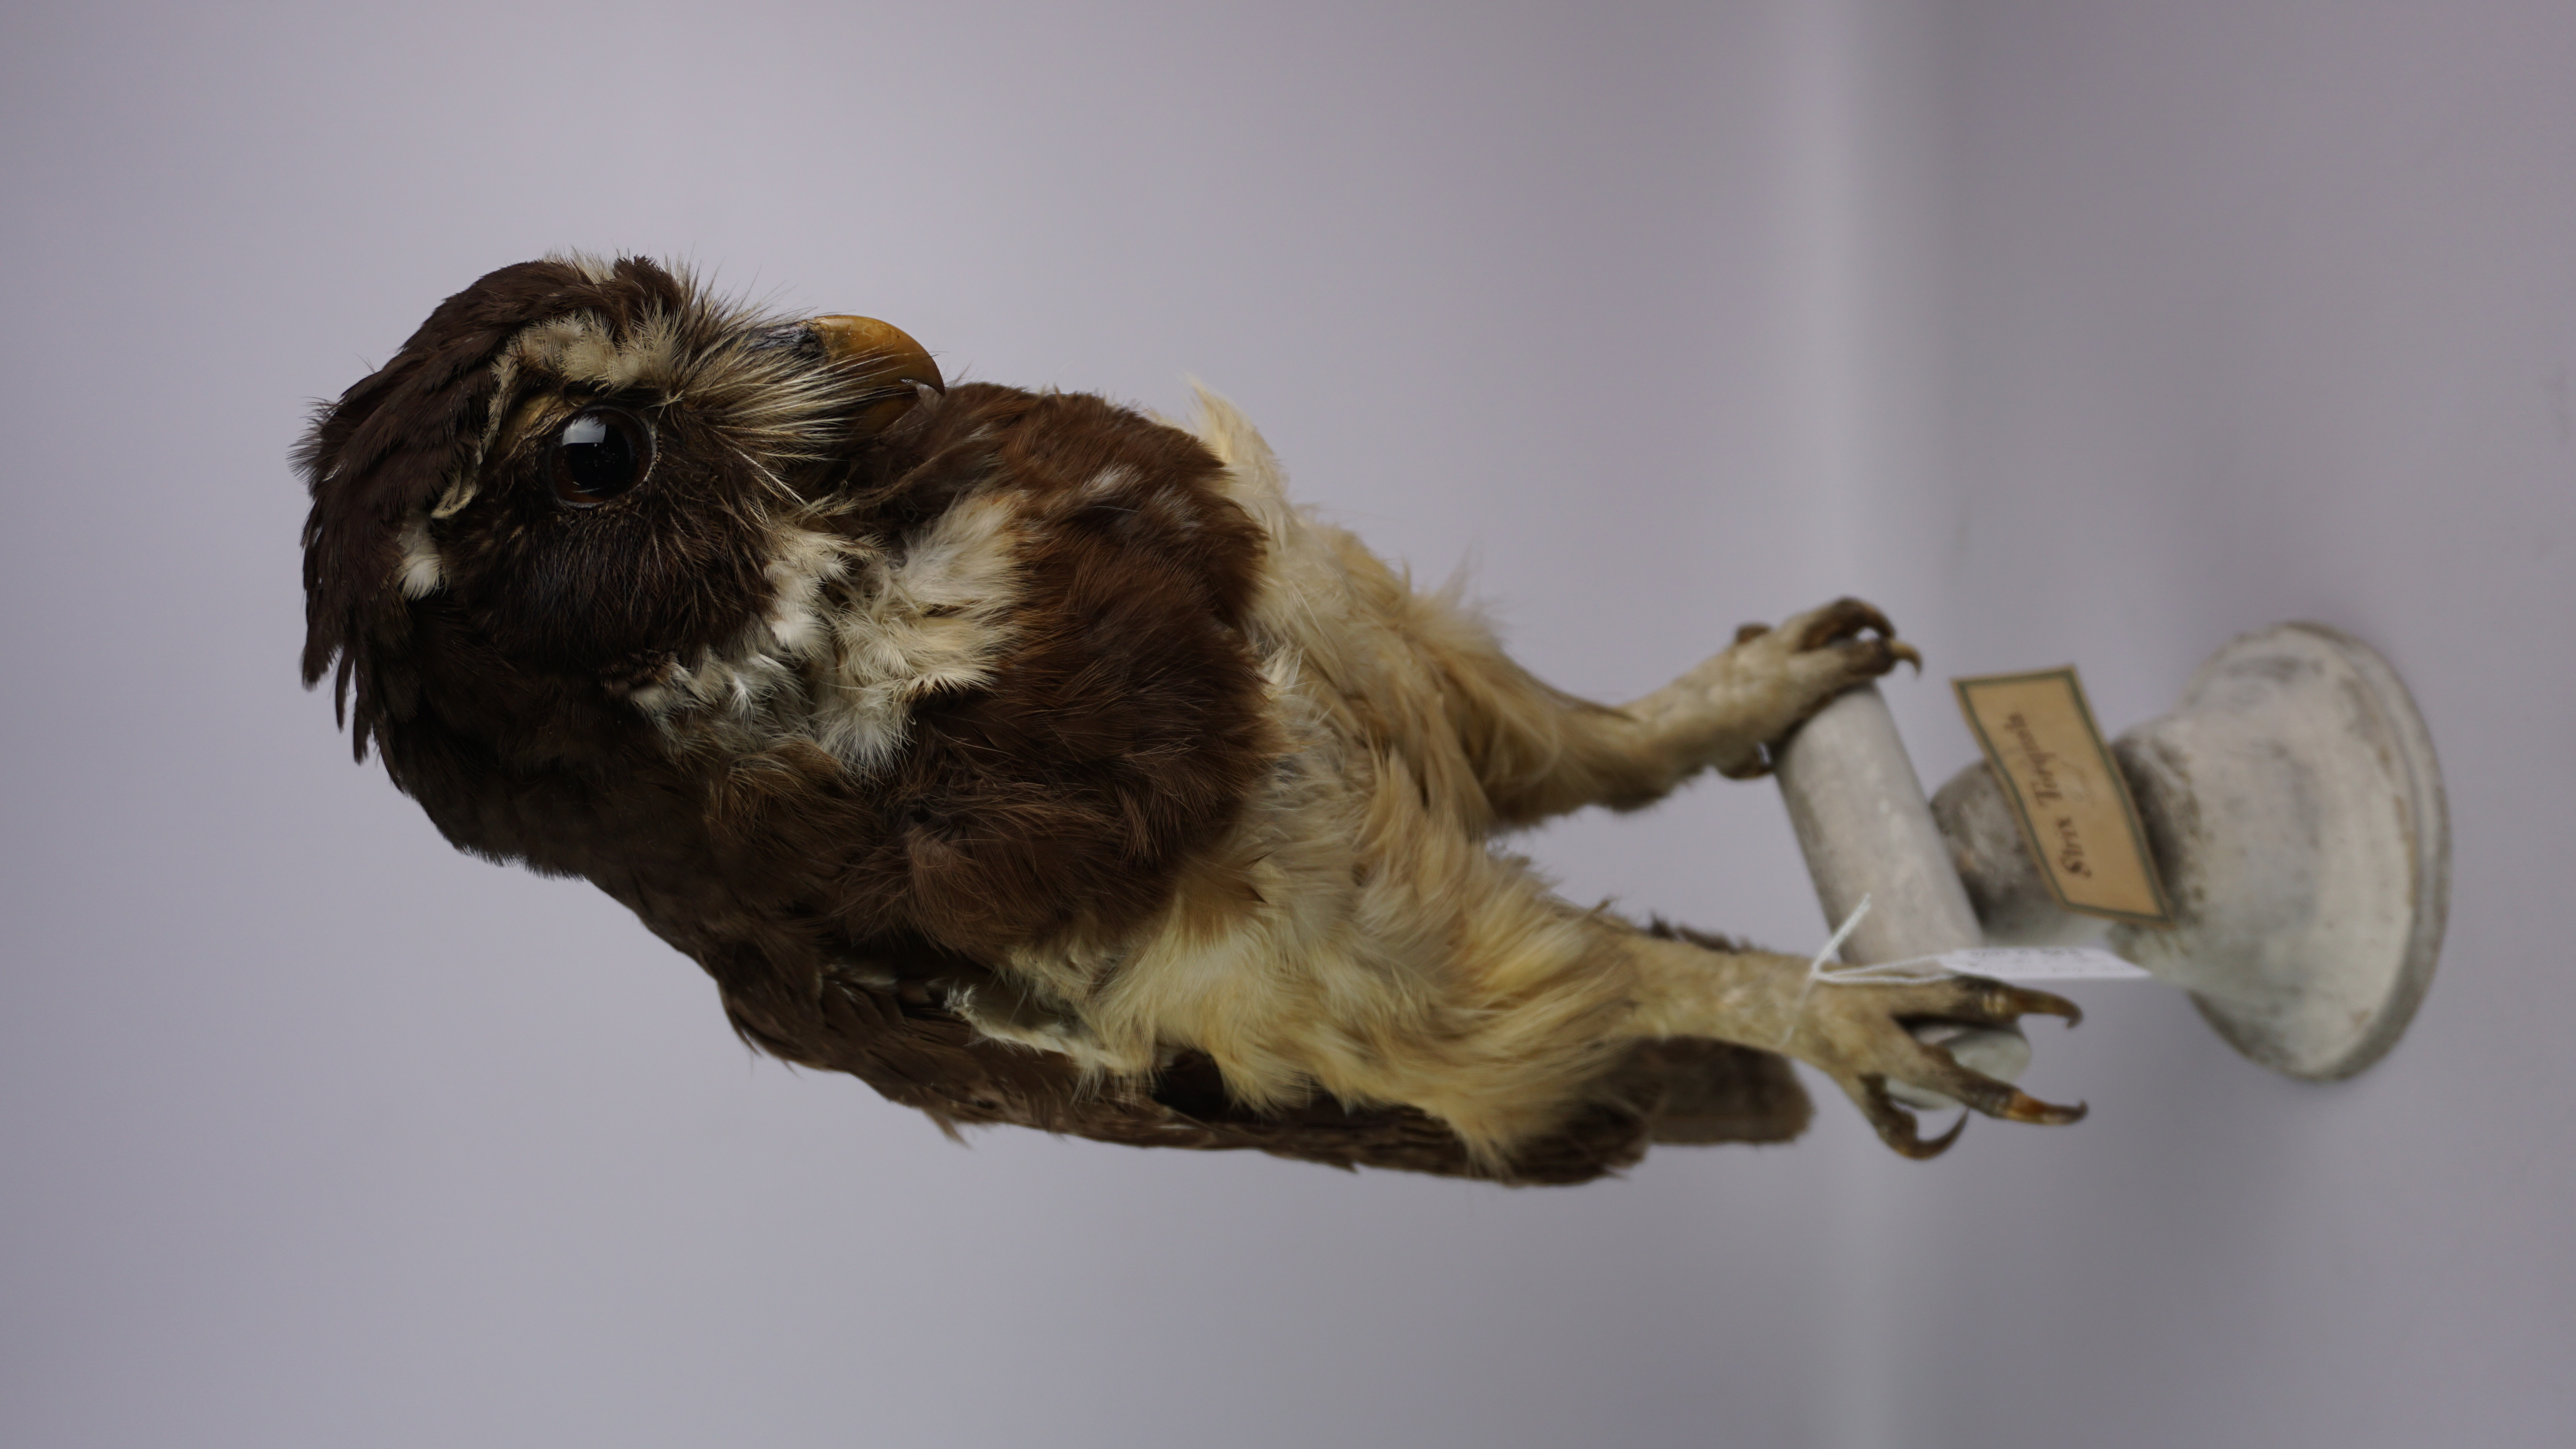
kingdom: Animalia
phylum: Chordata
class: Aves
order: Strigiformes
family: Strigidae
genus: Pulsatrix
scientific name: Pulsatrix perspicillata
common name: Spectacled owl
